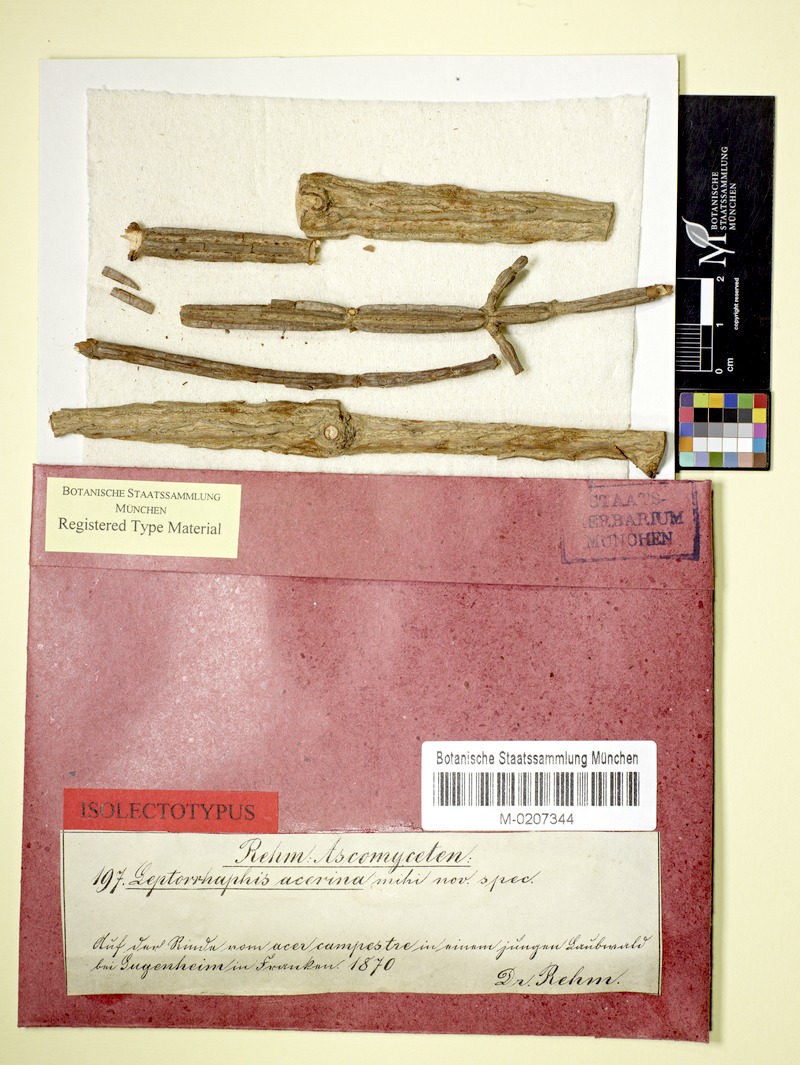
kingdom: Fungi
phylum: Ascomycota
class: Sordariomycetes
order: Xylariales
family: Leptosilliaceae
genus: Leptosillia
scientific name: Leptosillia acerina
